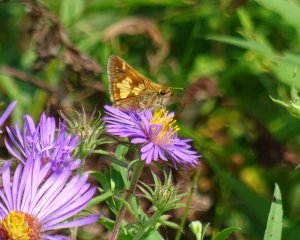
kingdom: Animalia
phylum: Arthropoda
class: Insecta
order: Lepidoptera
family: Hesperiidae
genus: Polites
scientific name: Polites coras
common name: Peck's Skipper
